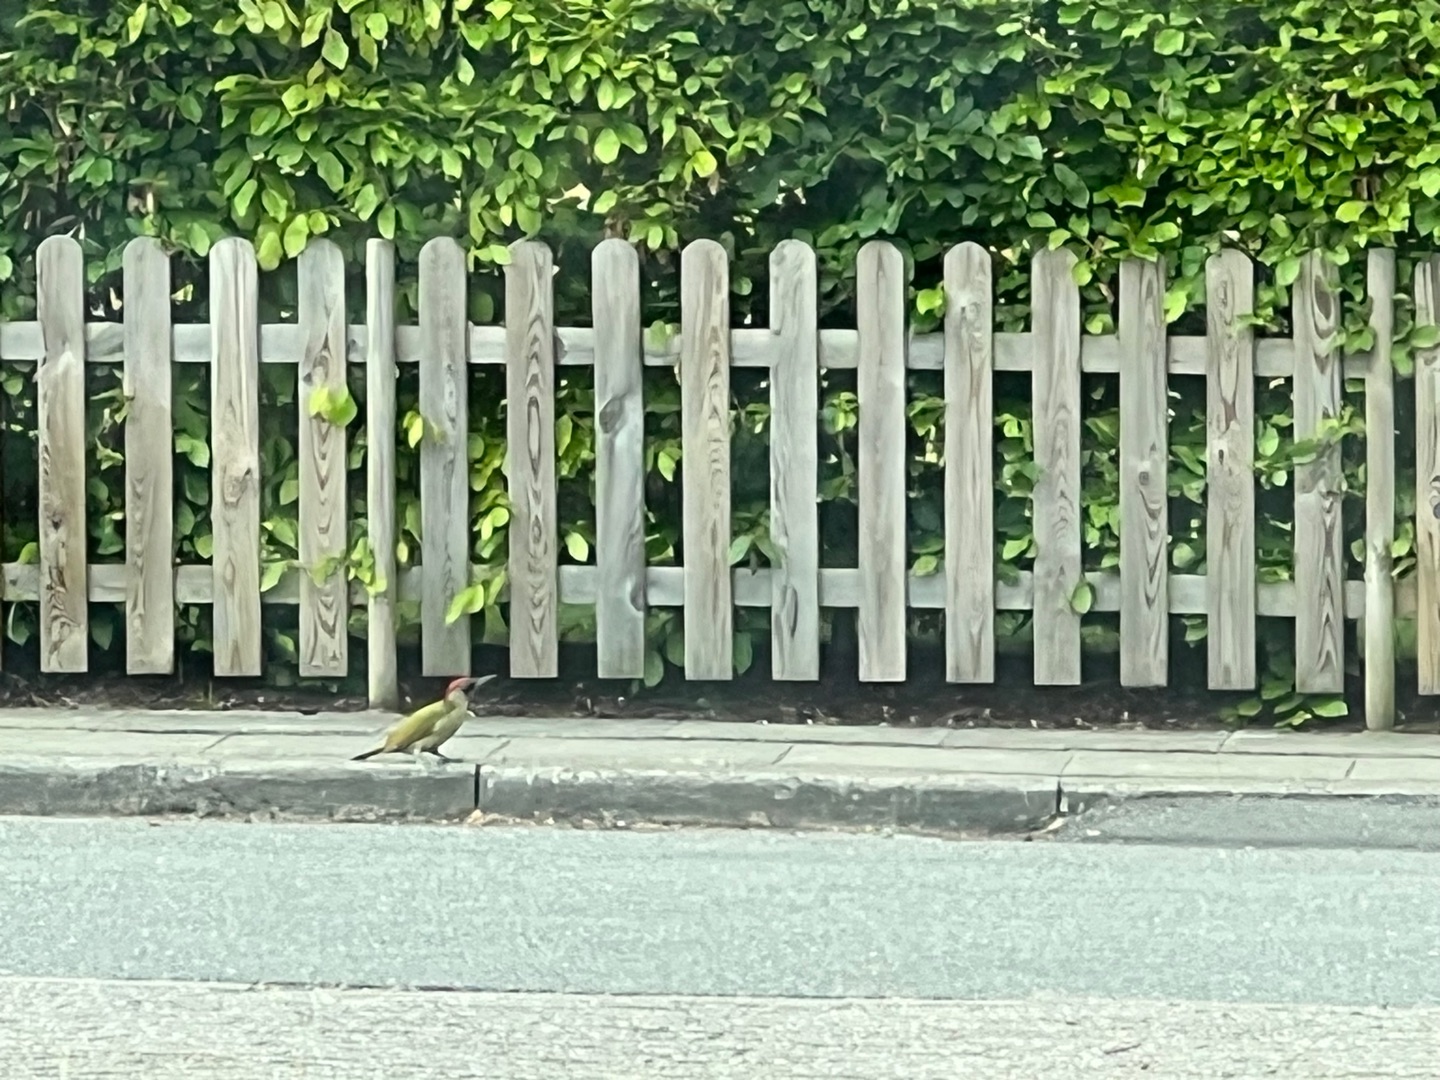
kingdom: Animalia
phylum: Chordata
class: Aves
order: Piciformes
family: Picidae
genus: Picus
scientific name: Picus viridis
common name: Grønspætte
